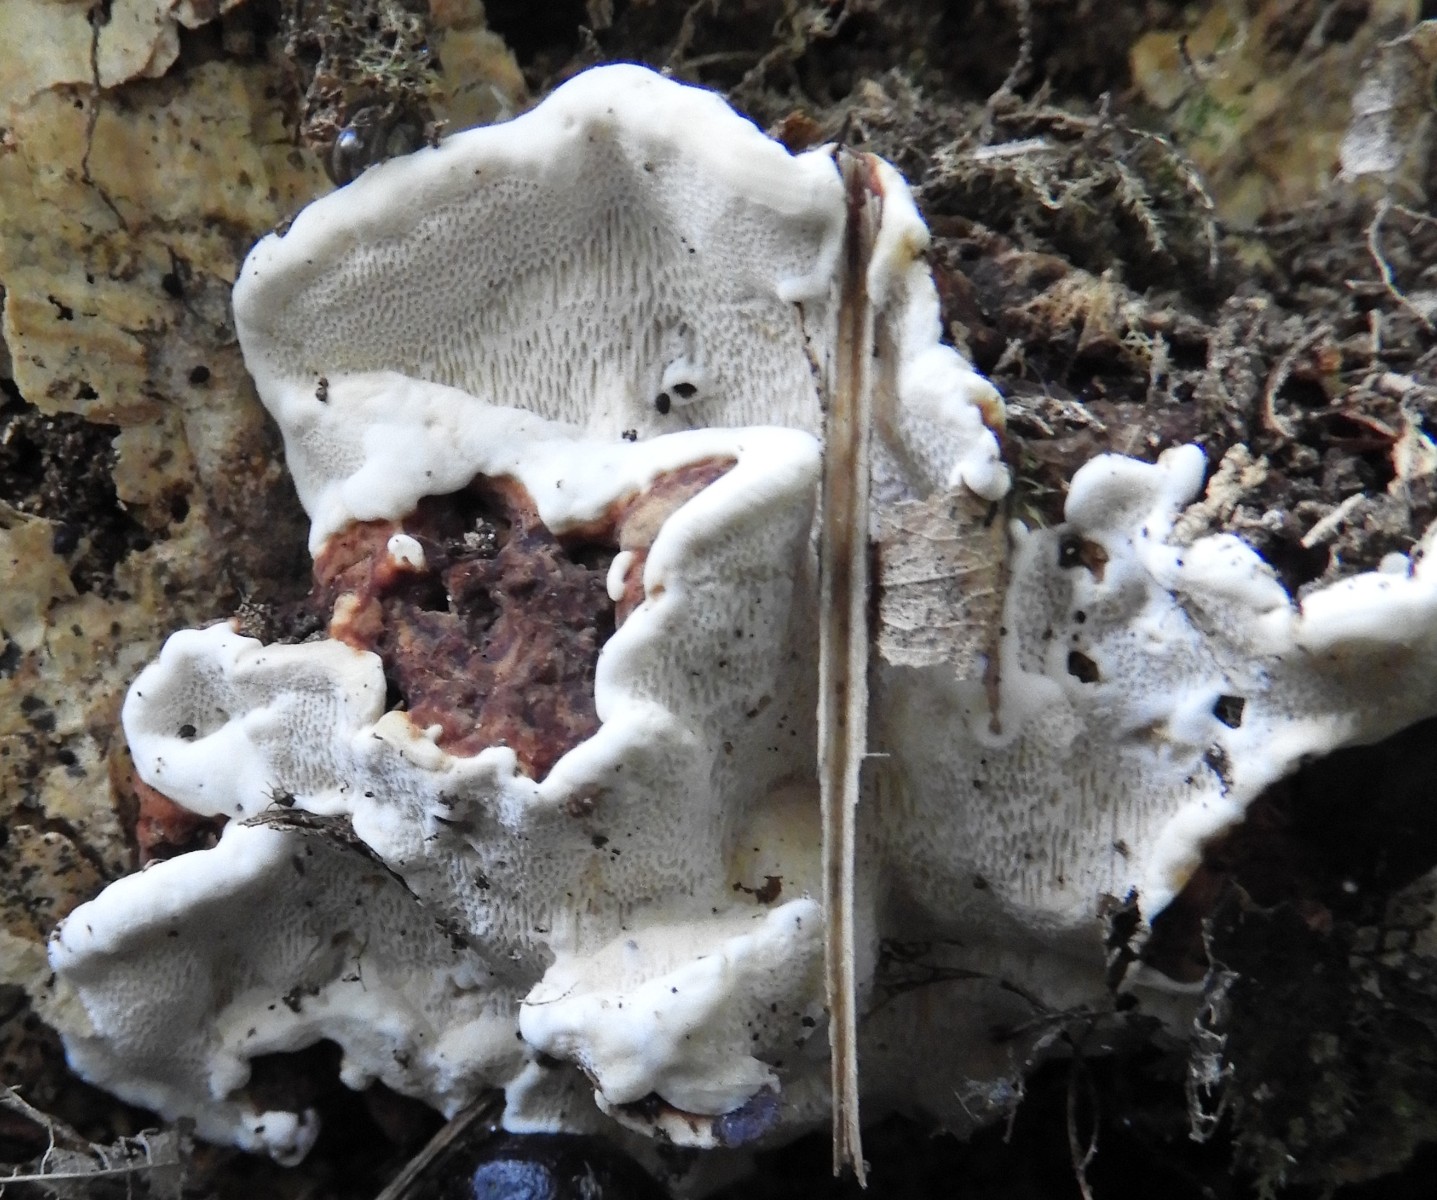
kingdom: Fungi
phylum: Basidiomycota
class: Agaricomycetes
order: Russulales
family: Bondarzewiaceae
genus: Heterobasidion
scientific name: Heterobasidion annosum
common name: almindelig rodfordærver
